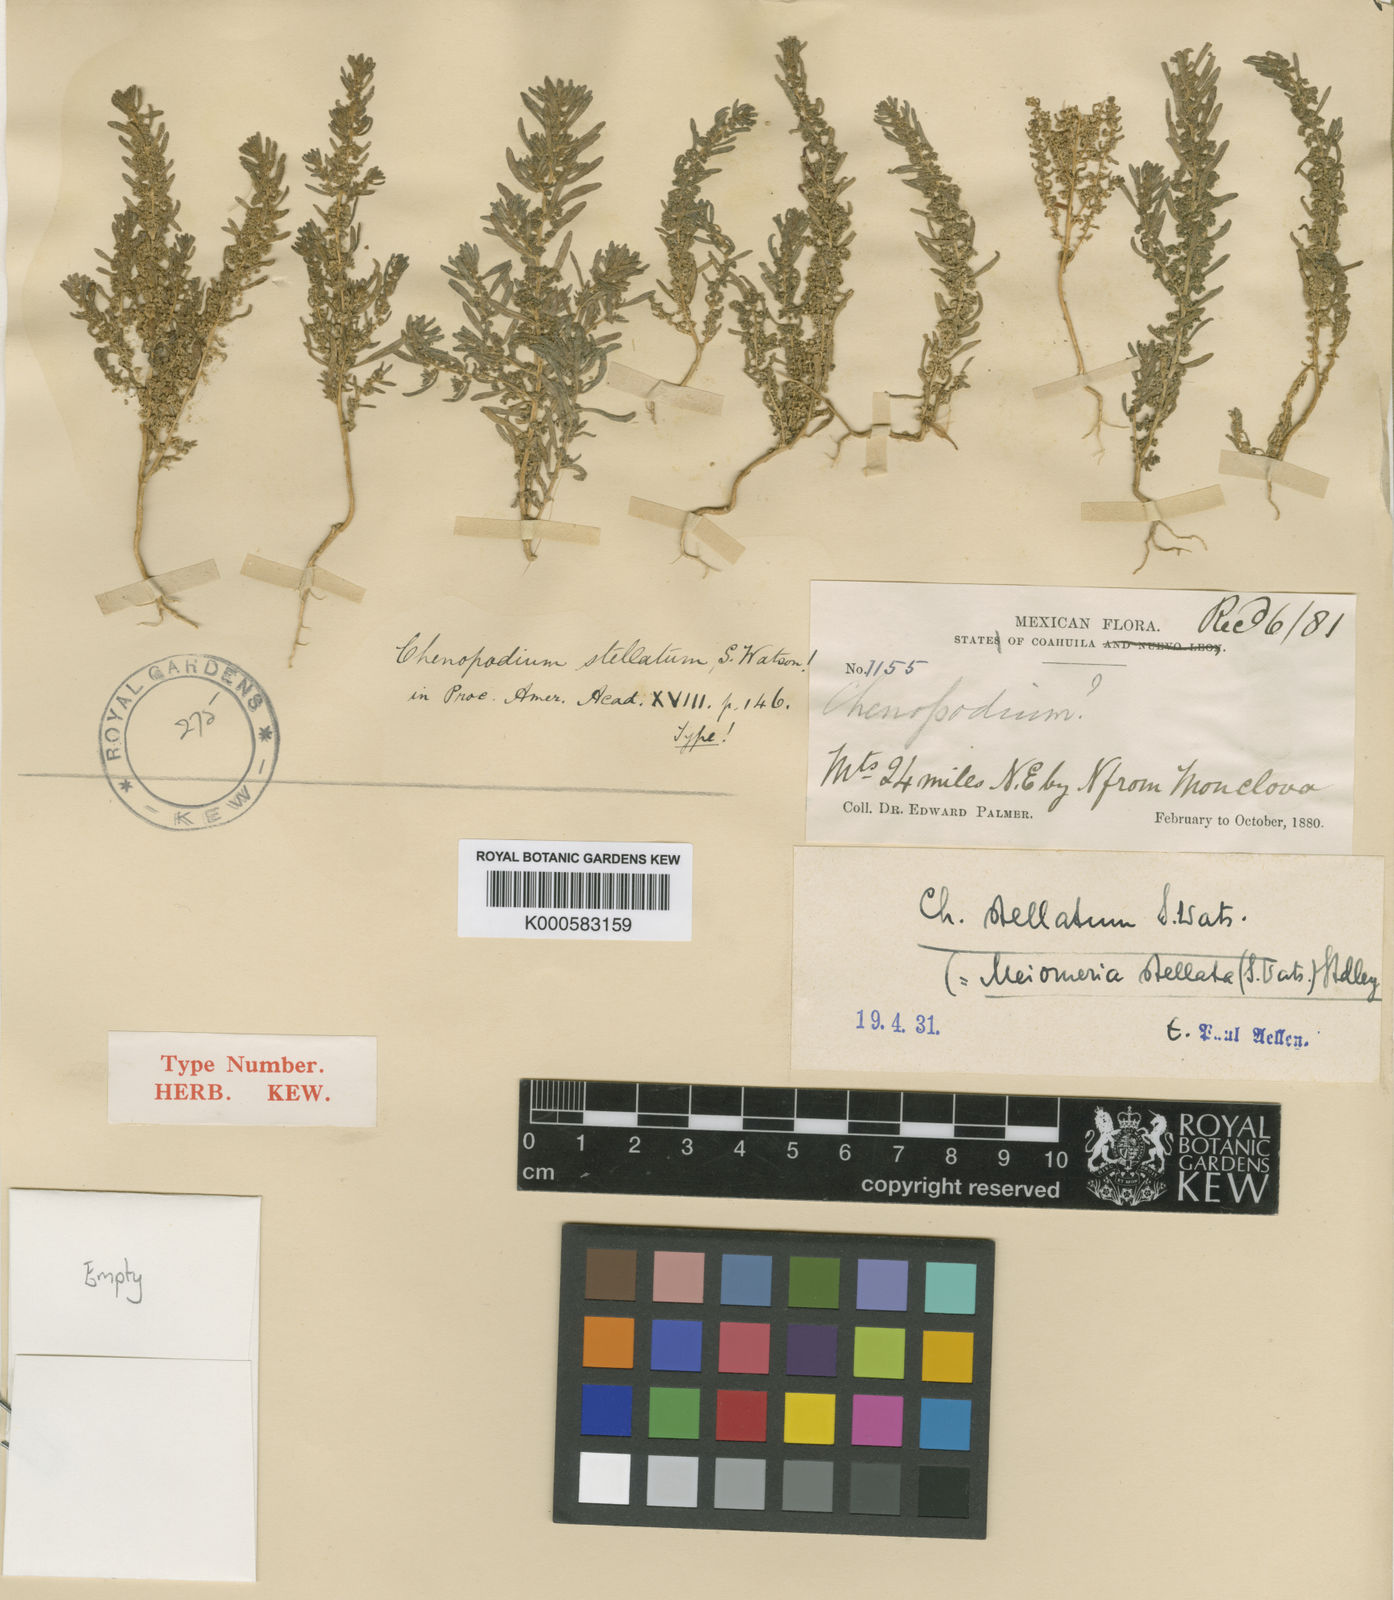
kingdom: Plantae
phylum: Tracheophyta
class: Magnoliopsida
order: Caryophyllales
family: Amaranthaceae
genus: Dysphania
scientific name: Dysphania stellata
